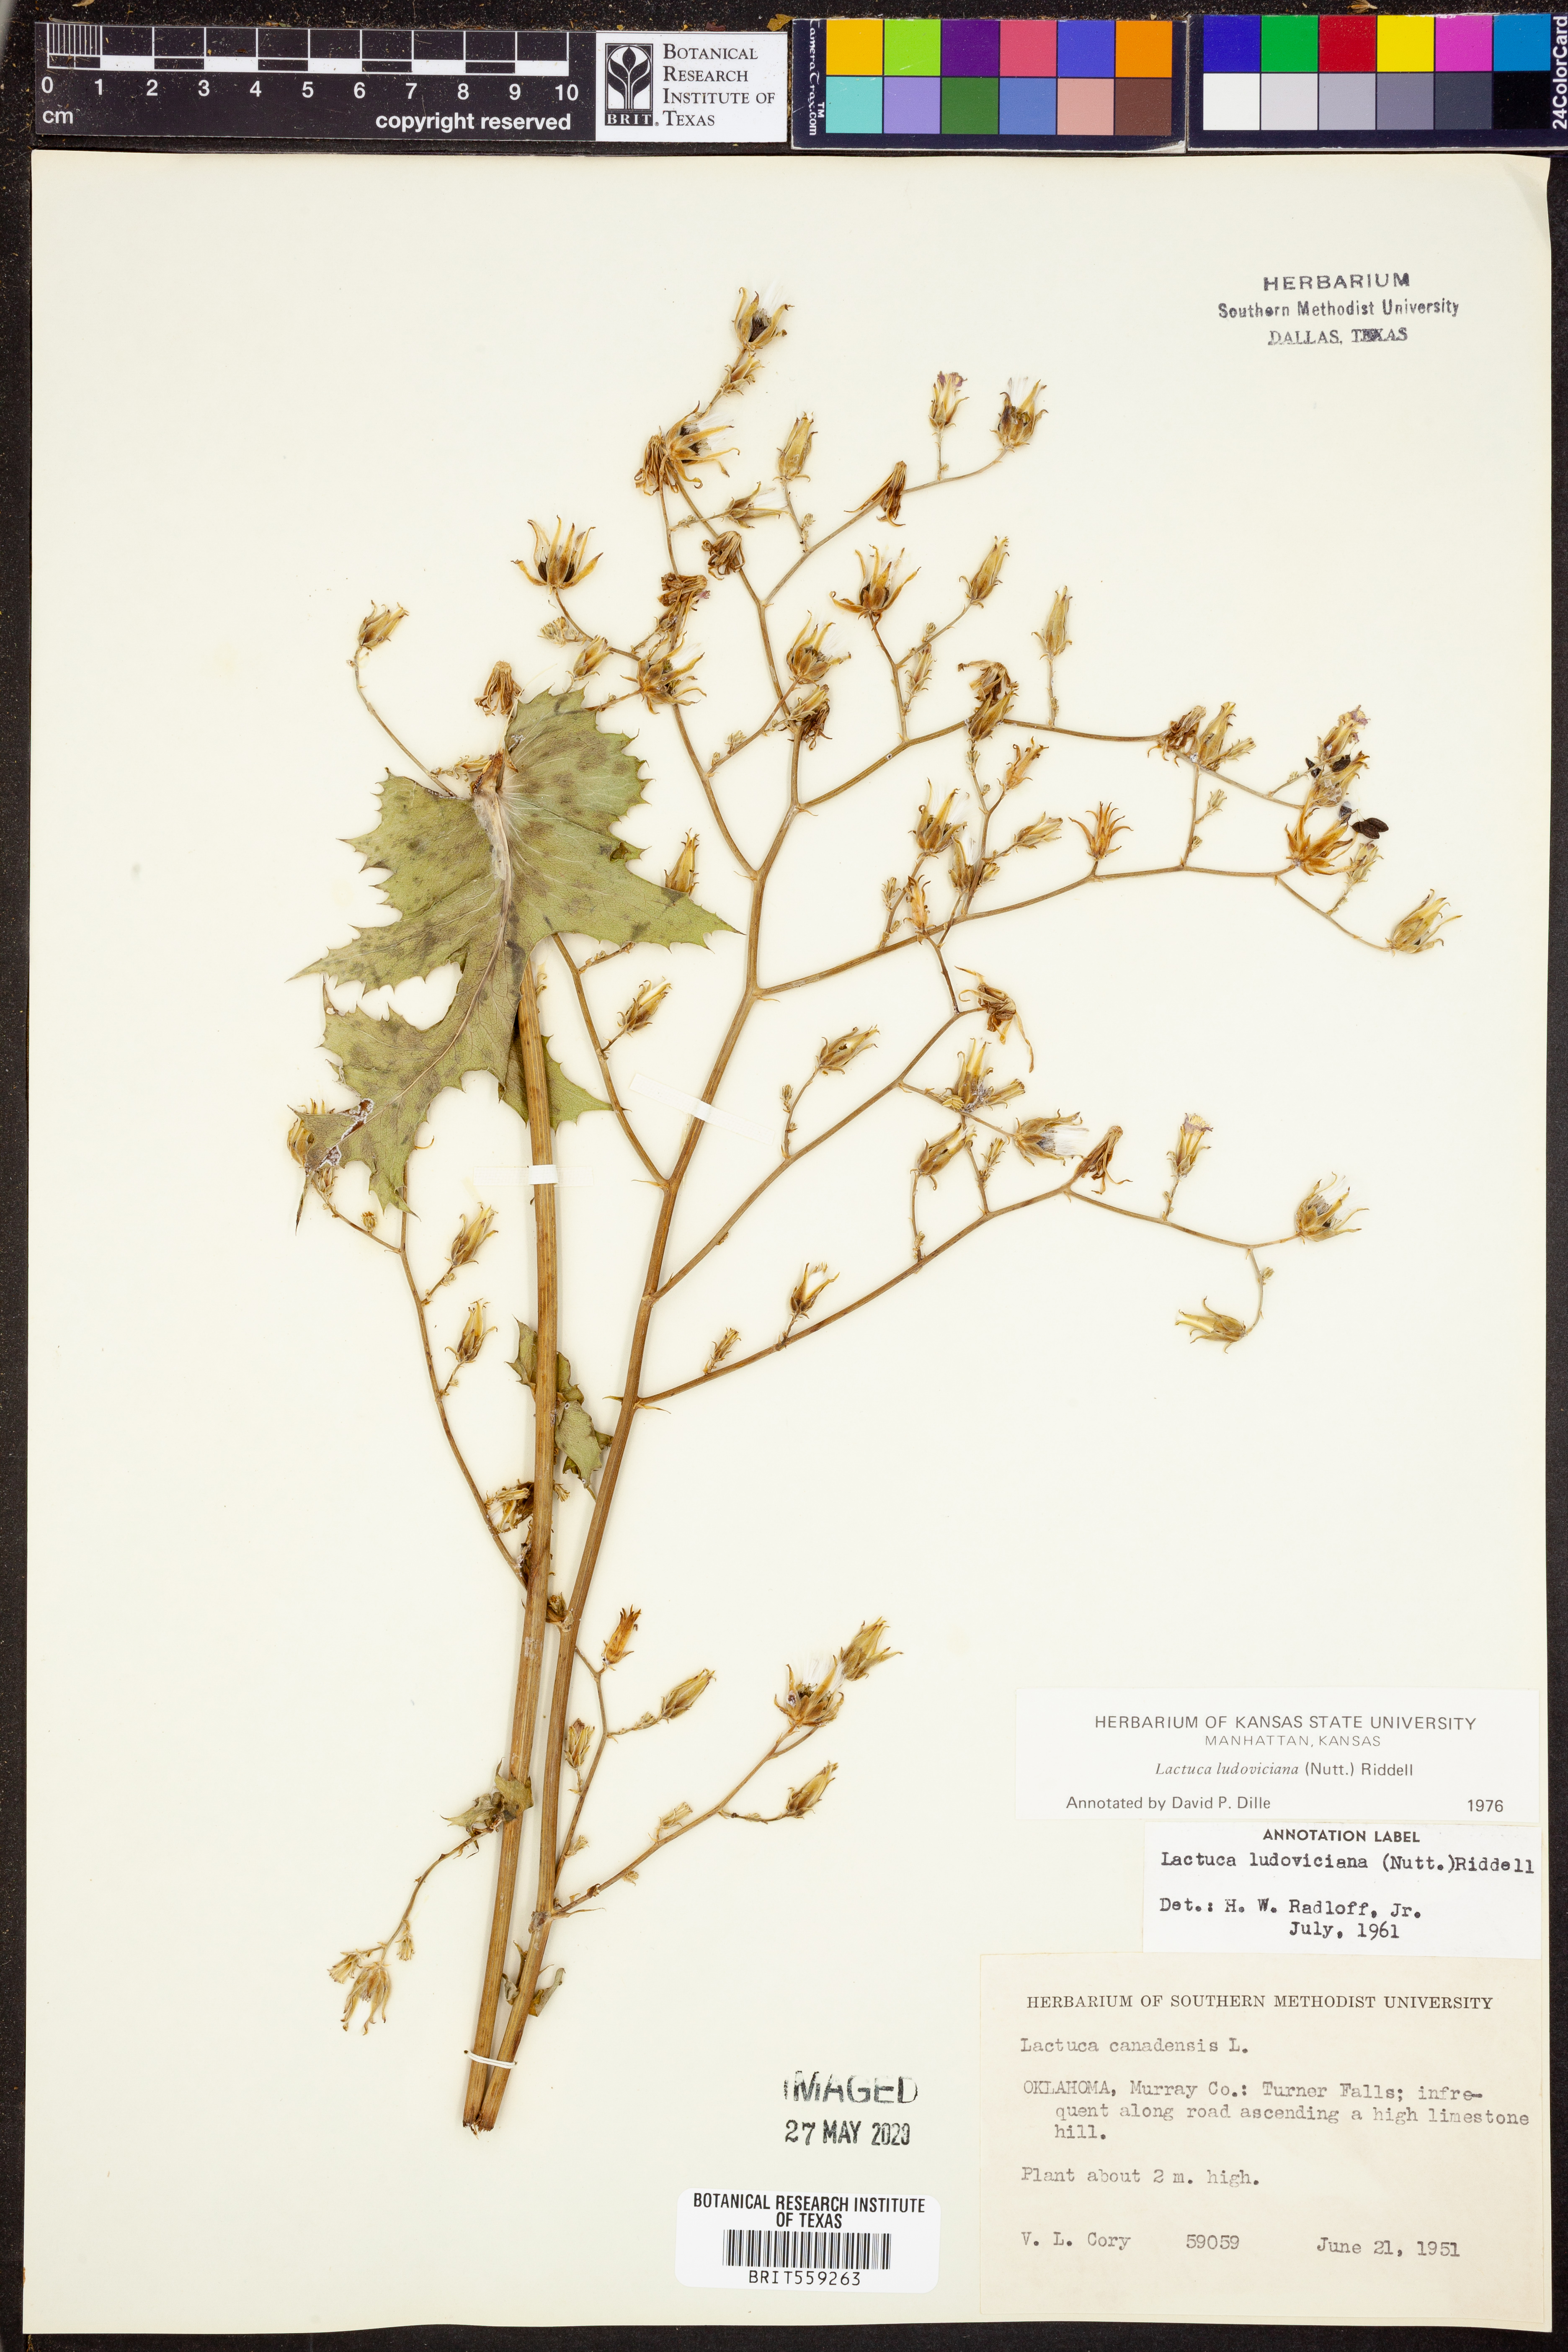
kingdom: Plantae
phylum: Tracheophyta
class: Magnoliopsida
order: Asterales
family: Asteraceae
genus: Lactuca
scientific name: Lactuca ludoviciana
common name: Louisiana lettuce
